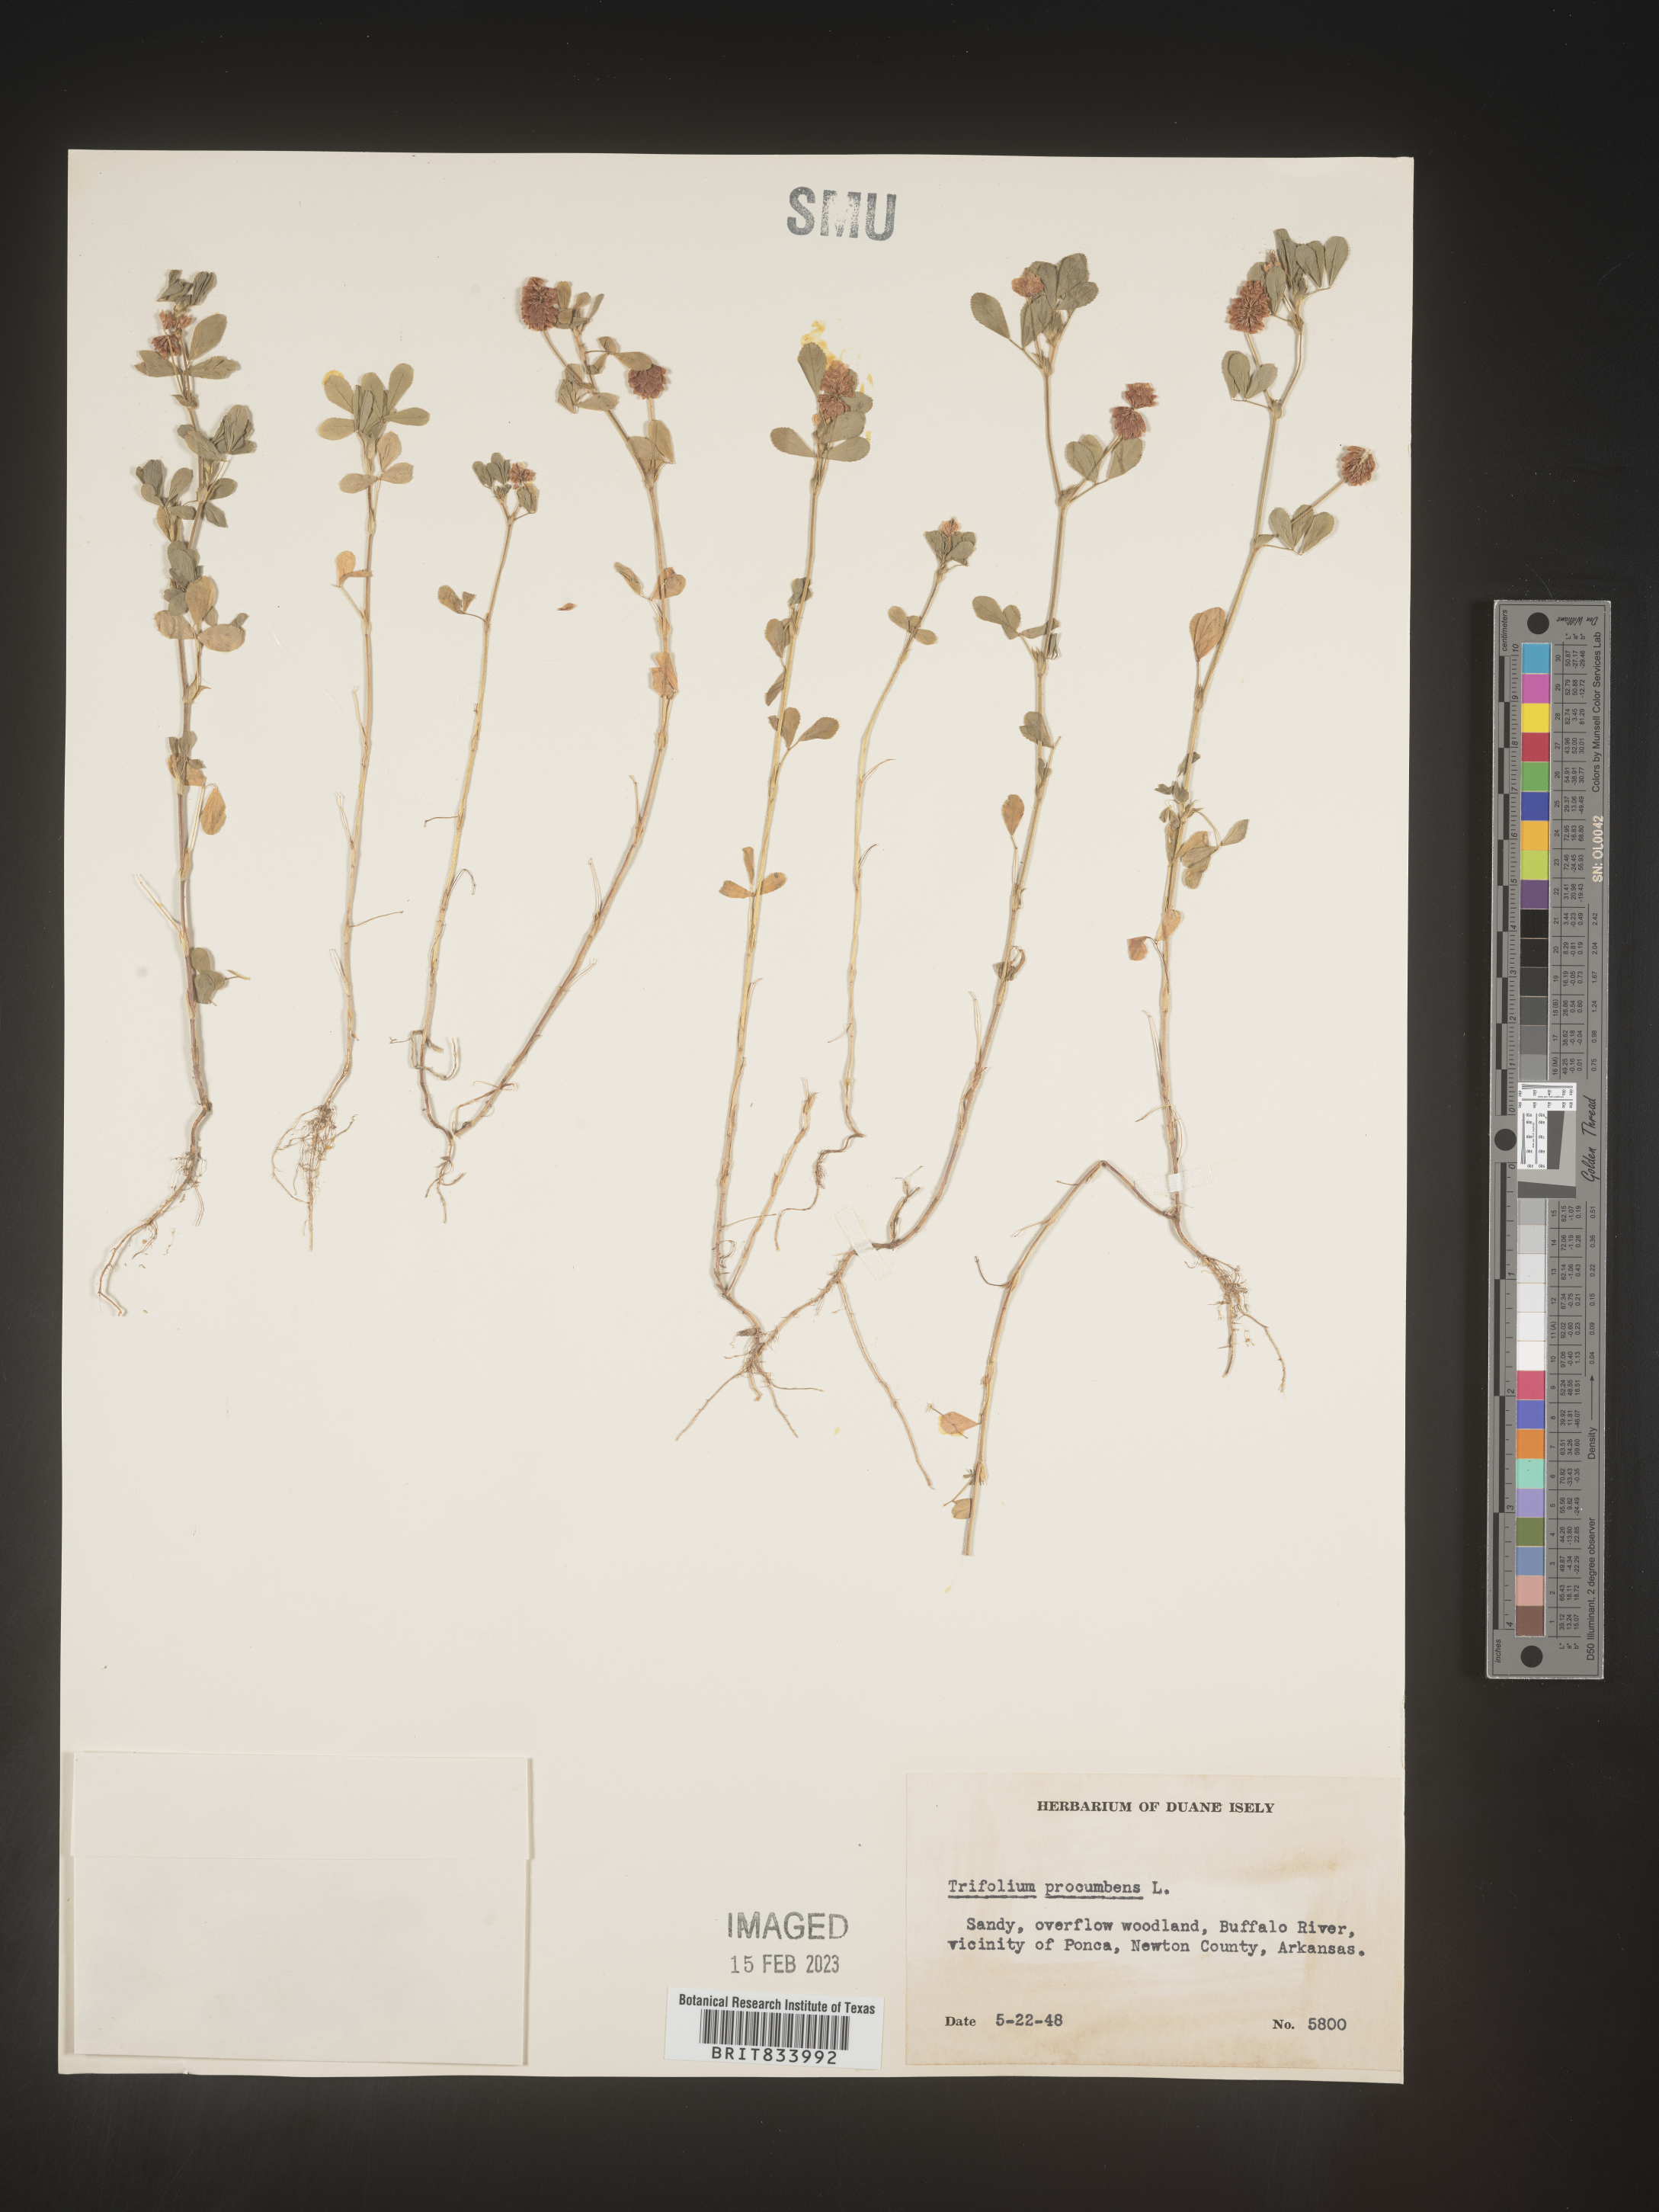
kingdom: Plantae
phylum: Tracheophyta
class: Magnoliopsida
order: Fabales
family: Fabaceae
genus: Trifolium
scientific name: Trifolium campestre
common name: Field clover
